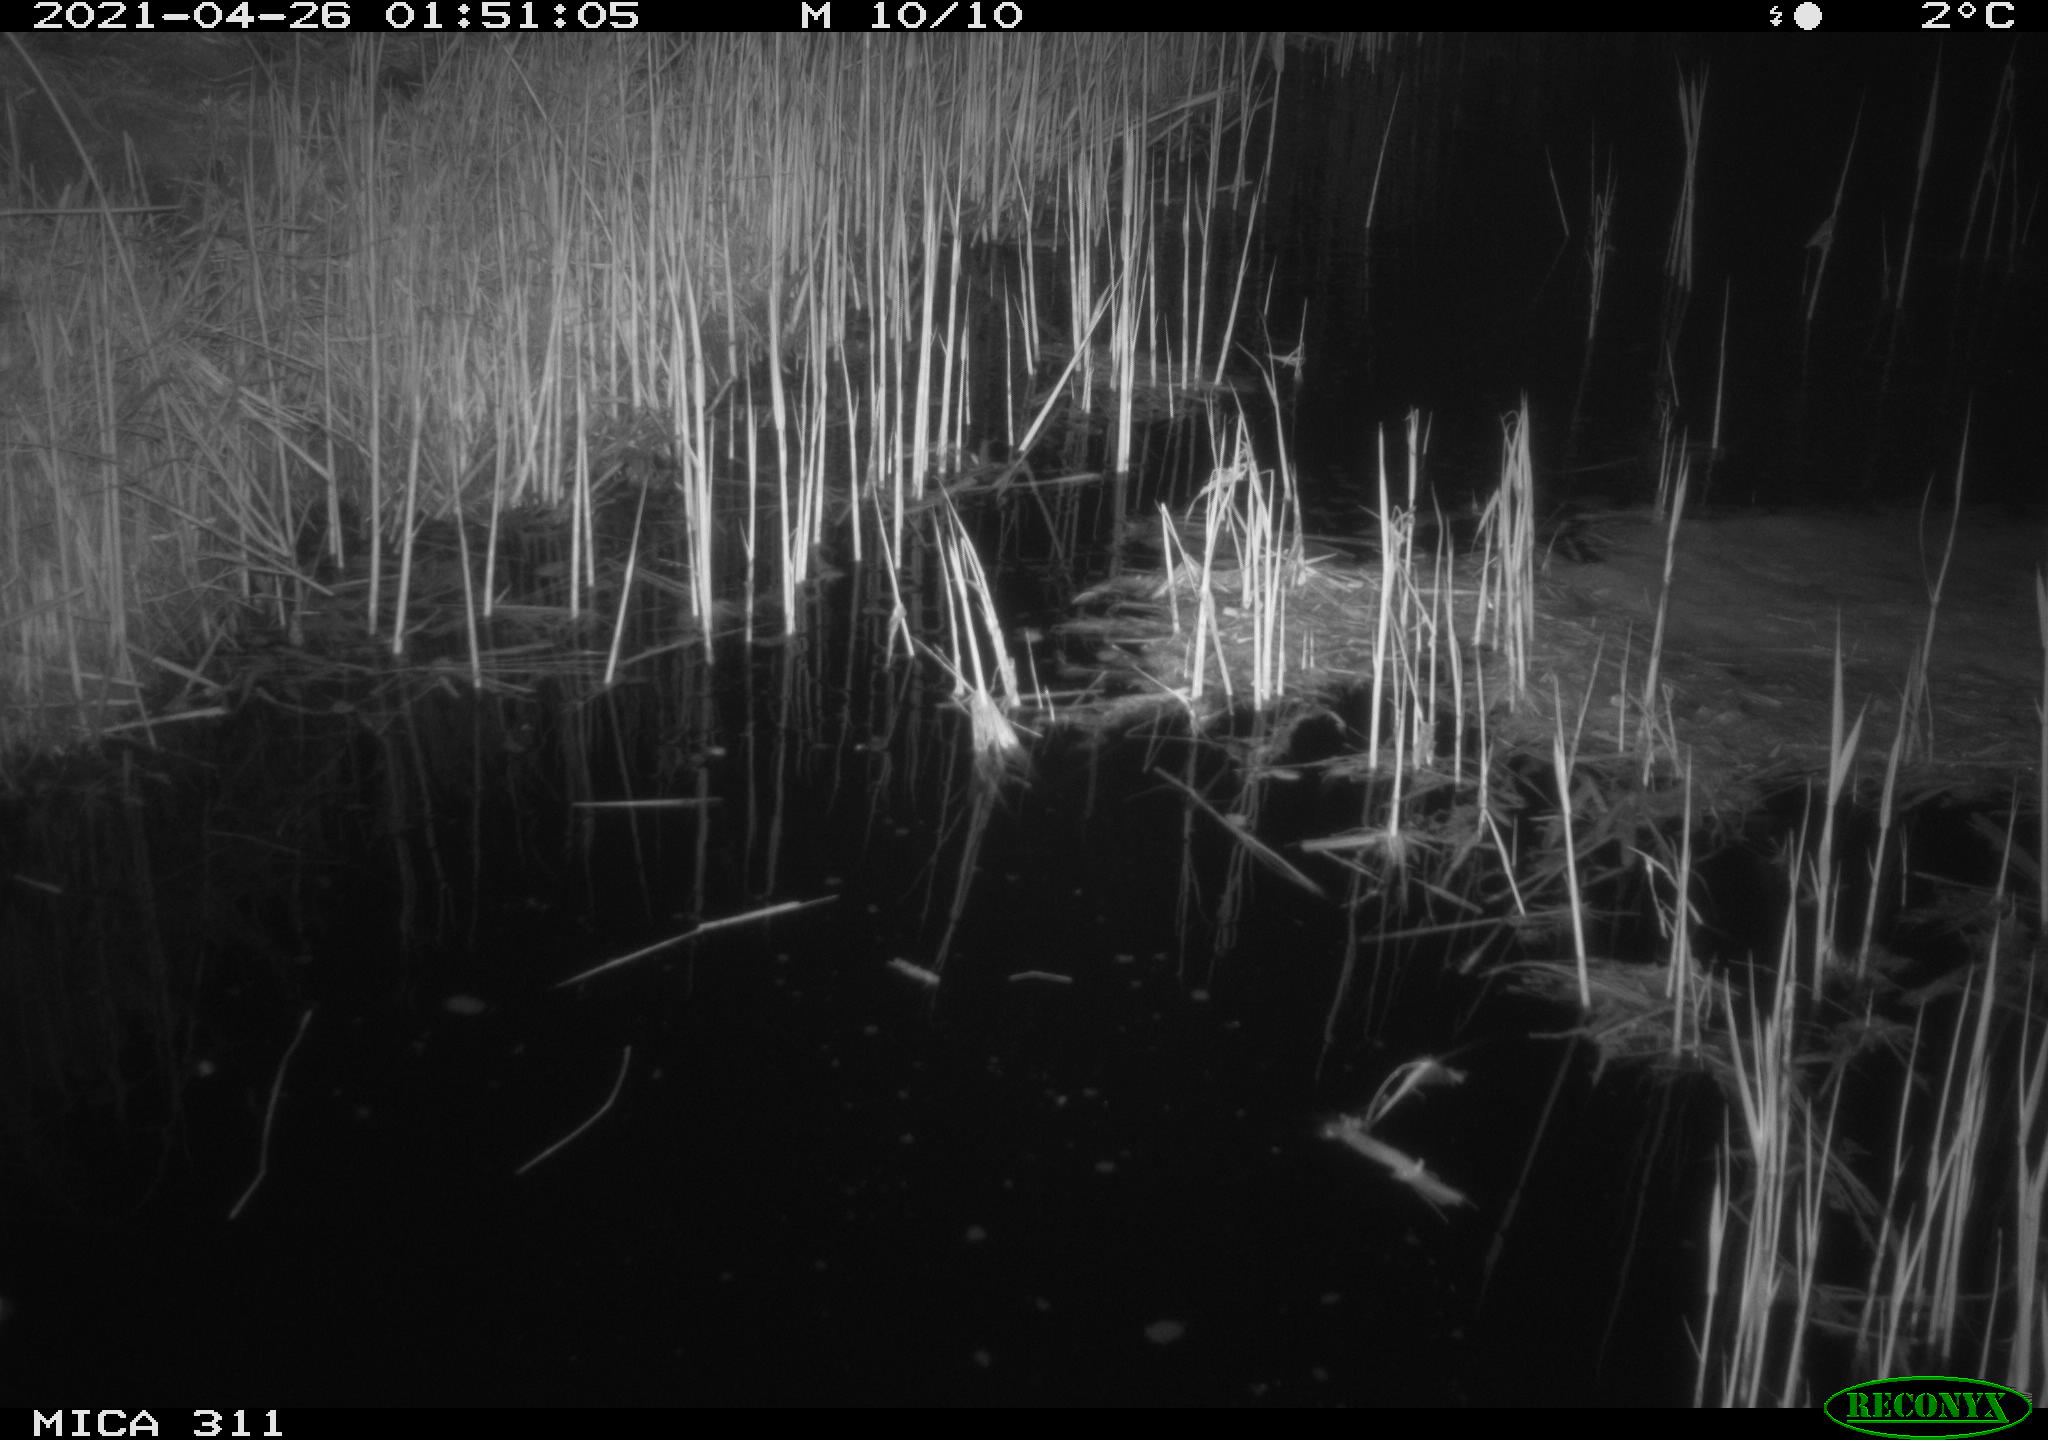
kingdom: Animalia
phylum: Chordata
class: Mammalia
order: Rodentia
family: Cricetidae
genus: Ondatra
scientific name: Ondatra zibethicus
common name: Muskrat
